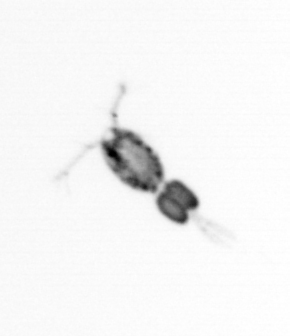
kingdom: Animalia
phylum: Arthropoda
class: Copepoda
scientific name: Copepoda
